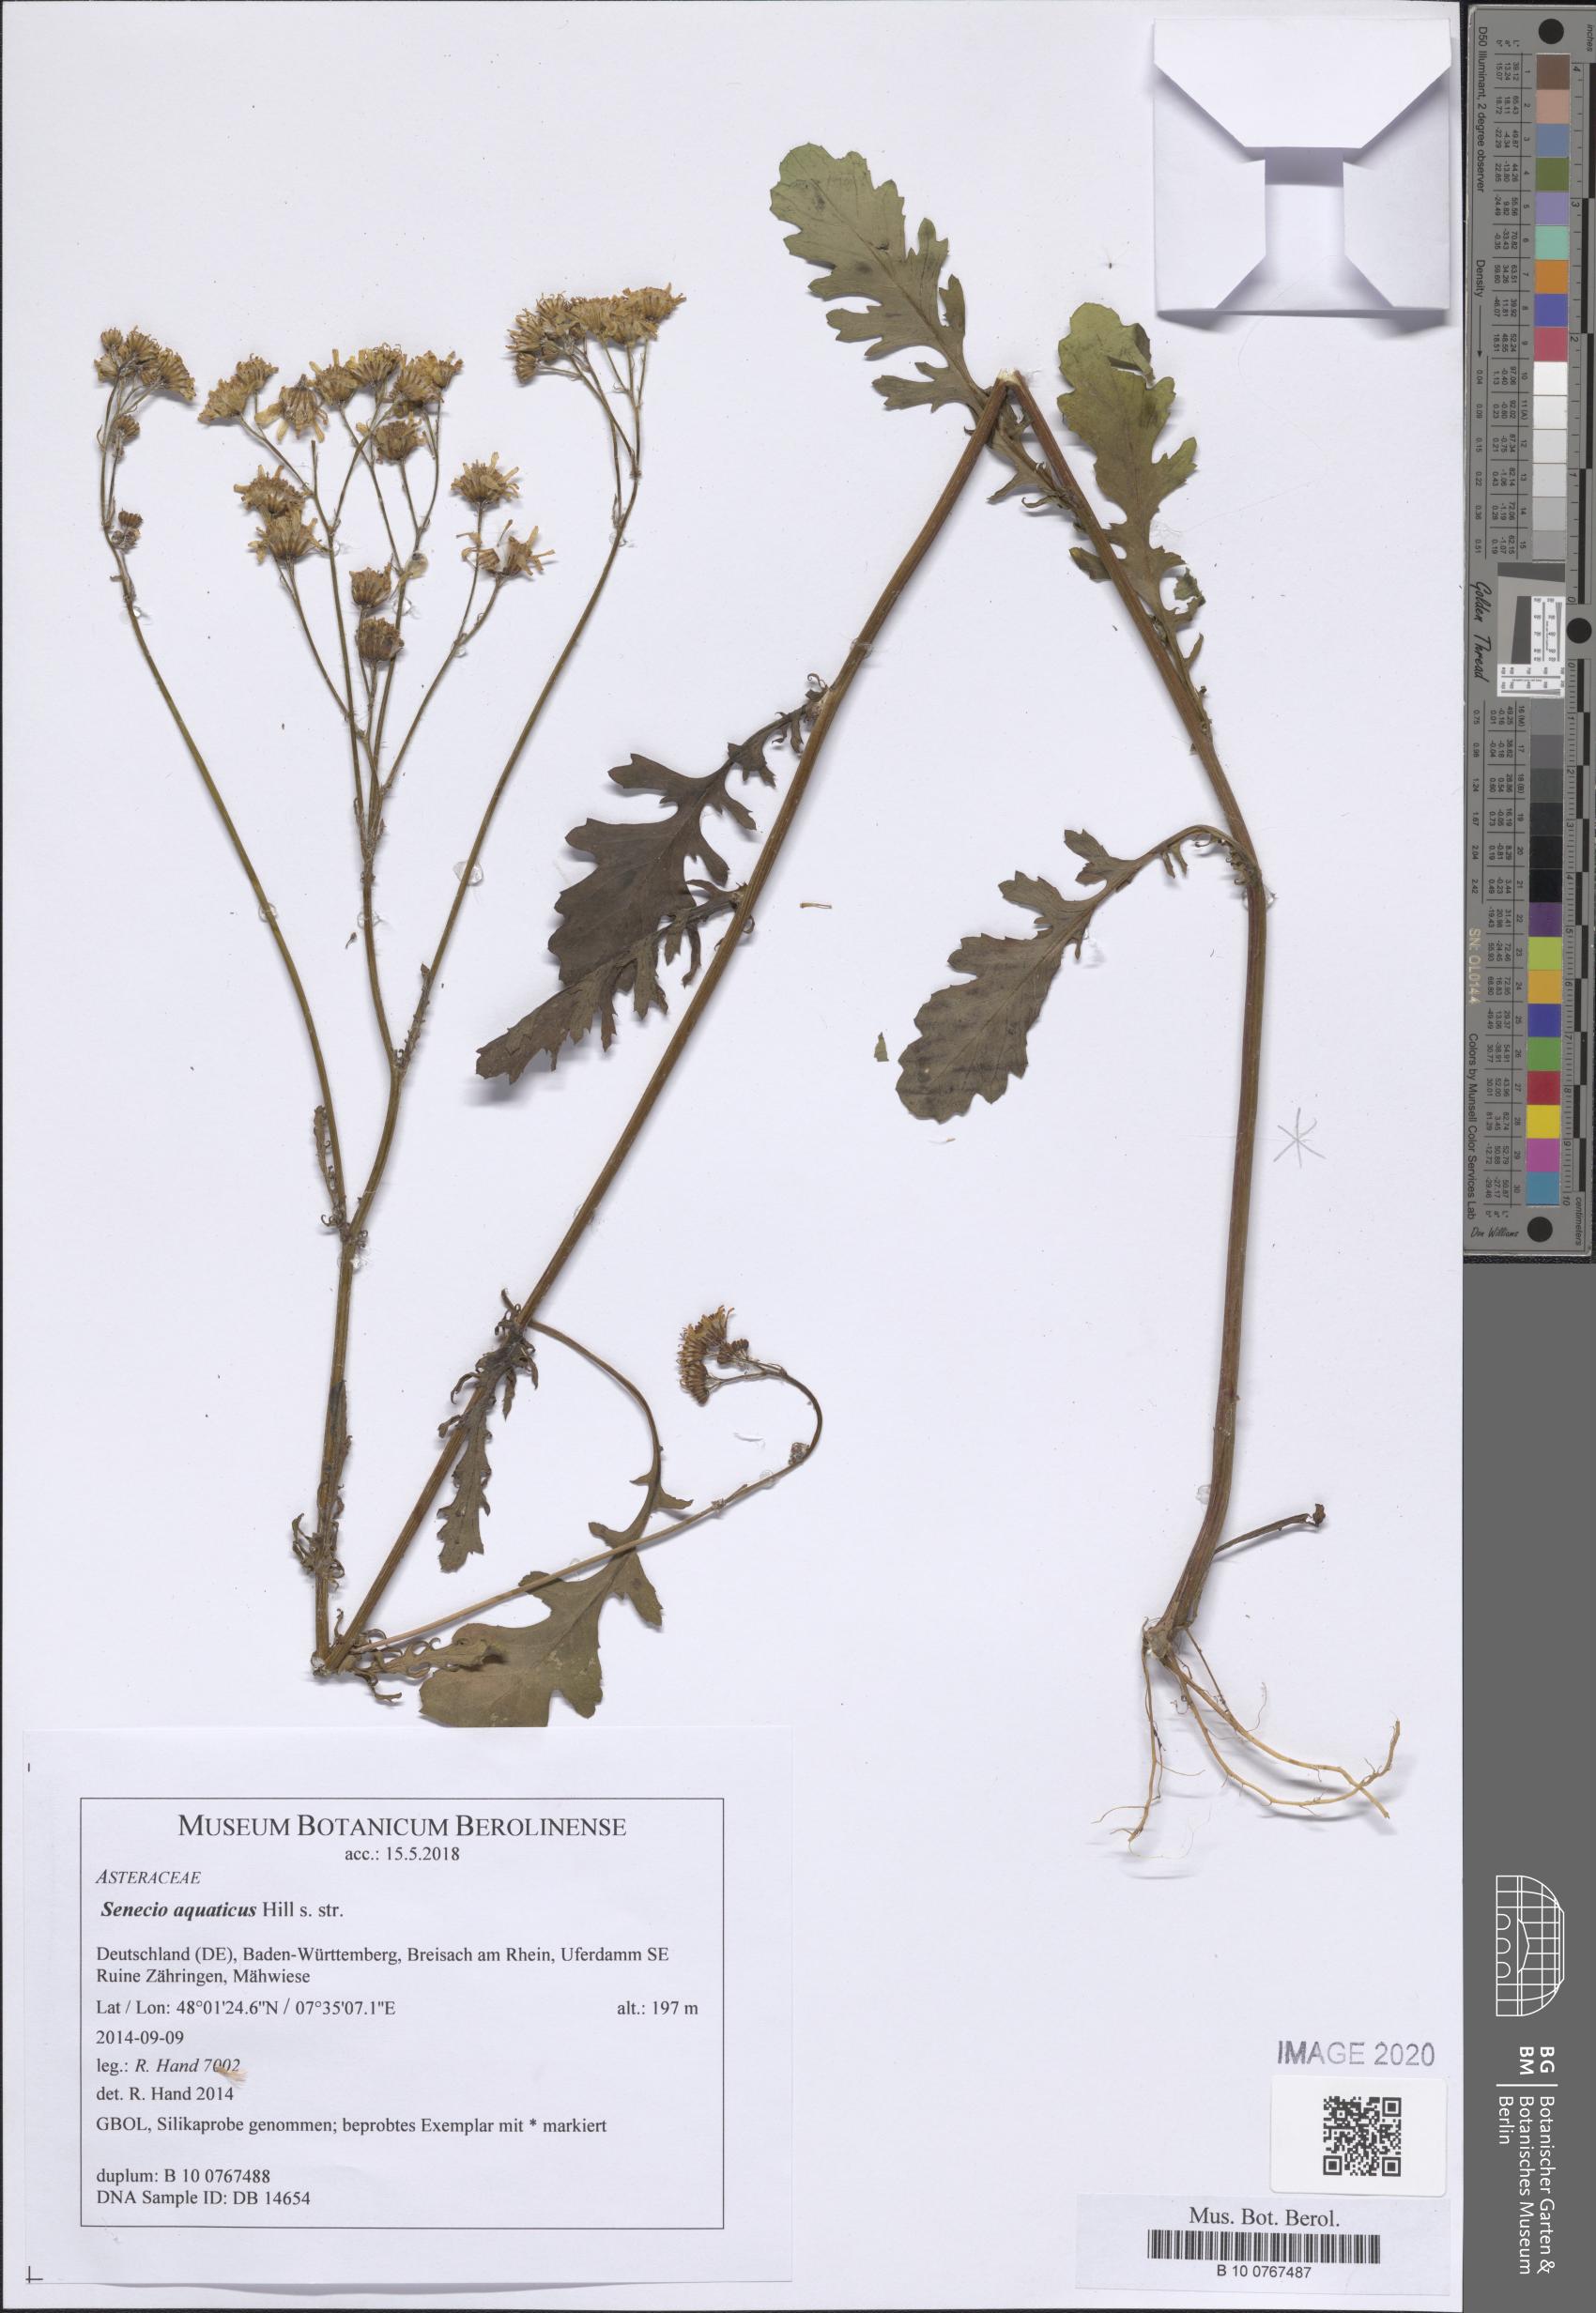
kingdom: Plantae
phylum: Tracheophyta
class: Magnoliopsida
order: Asterales
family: Asteraceae
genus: Jacobaea
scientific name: Jacobaea aquatica
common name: Water ragwort
